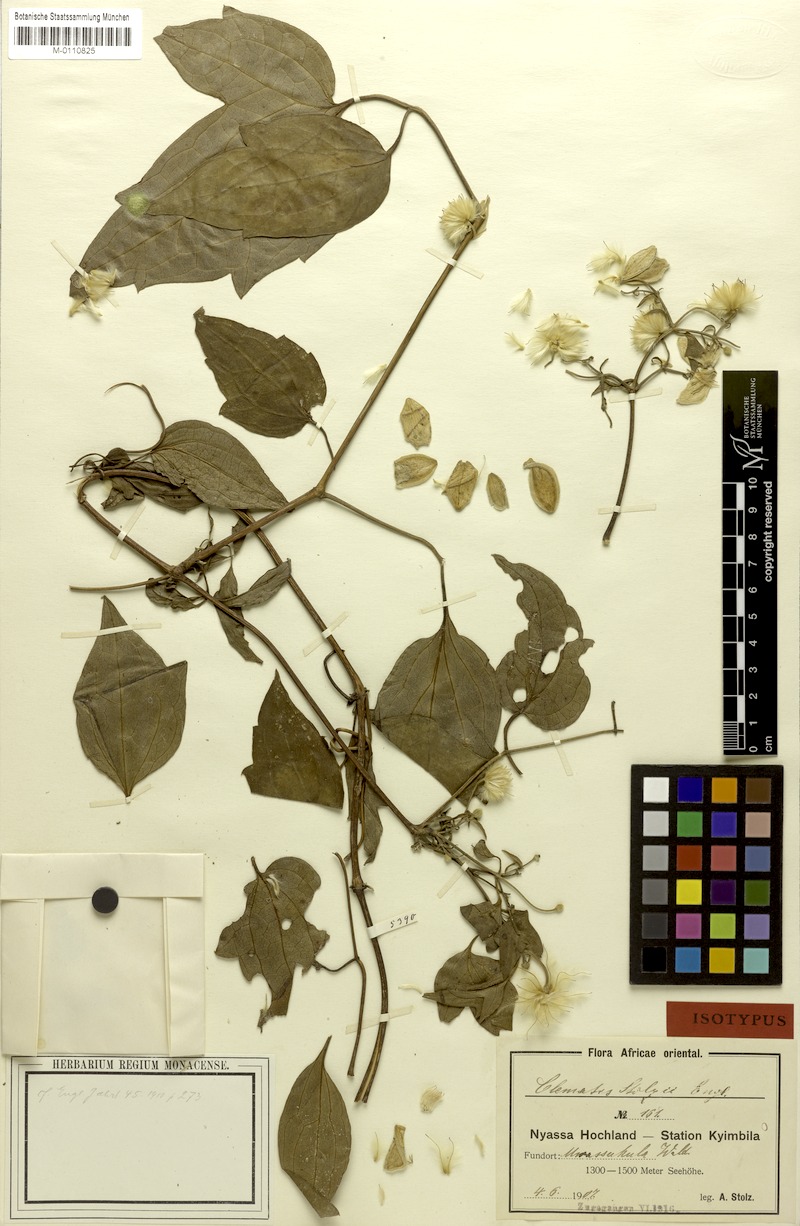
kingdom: Plantae
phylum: Tracheophyta
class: Magnoliopsida
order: Ranunculales
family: Ranunculaceae
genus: Clematis
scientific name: Clematis viridiflora
